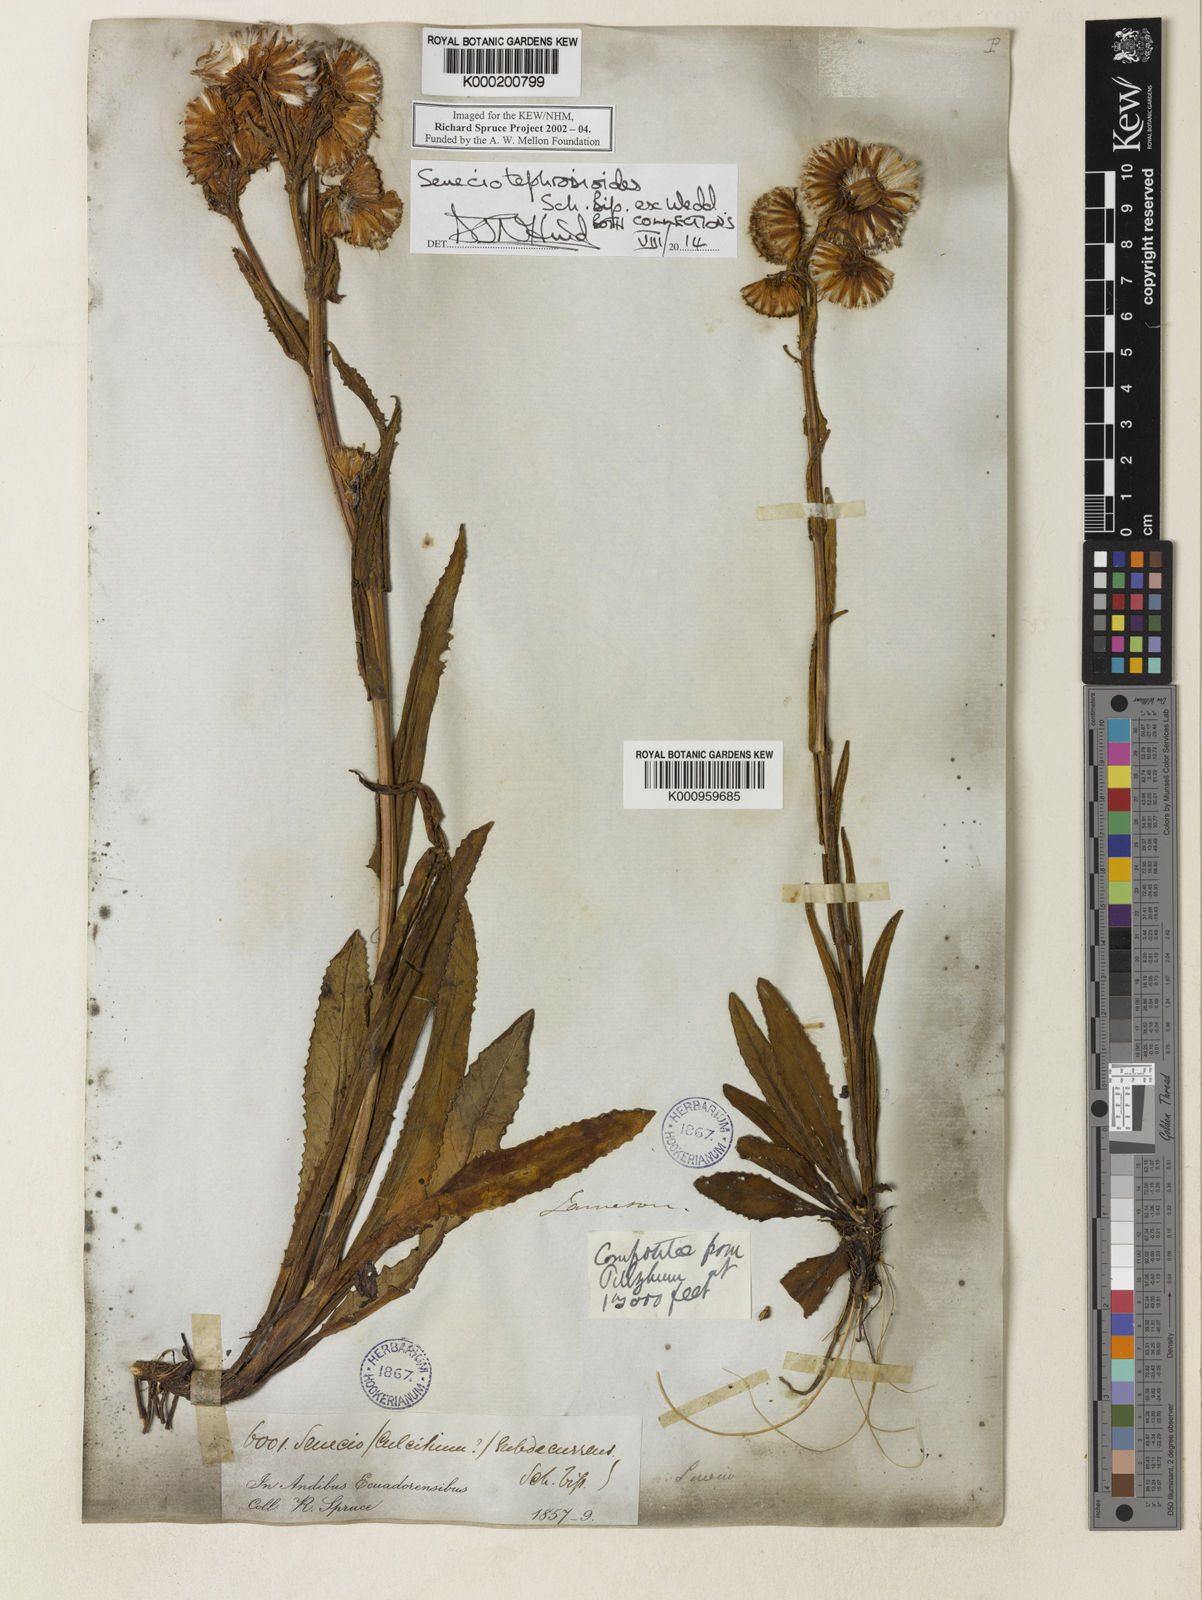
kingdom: Plantae
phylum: Tracheophyta
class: Magnoliopsida
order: Asterales
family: Asteraceae
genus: Senecio
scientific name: Senecio
